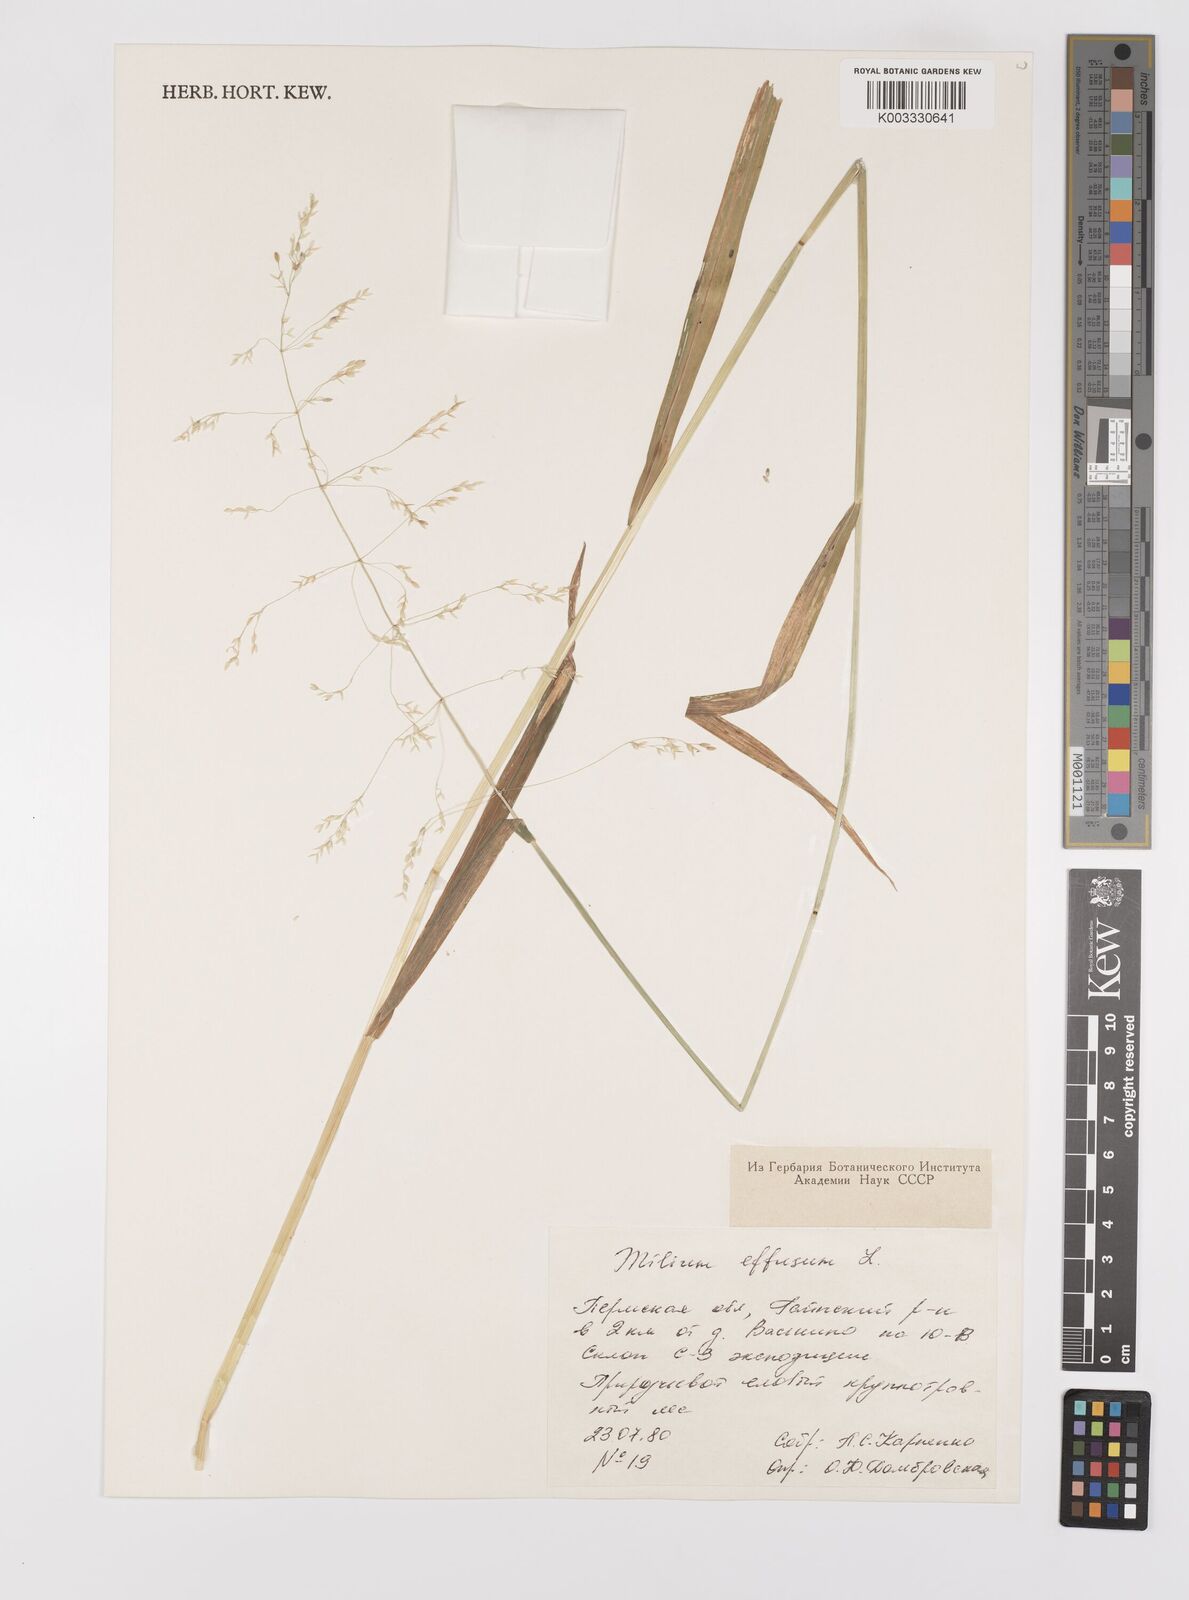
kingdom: Plantae
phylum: Tracheophyta
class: Liliopsida
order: Poales
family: Poaceae
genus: Milium
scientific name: Milium effusum
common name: Wood millet
